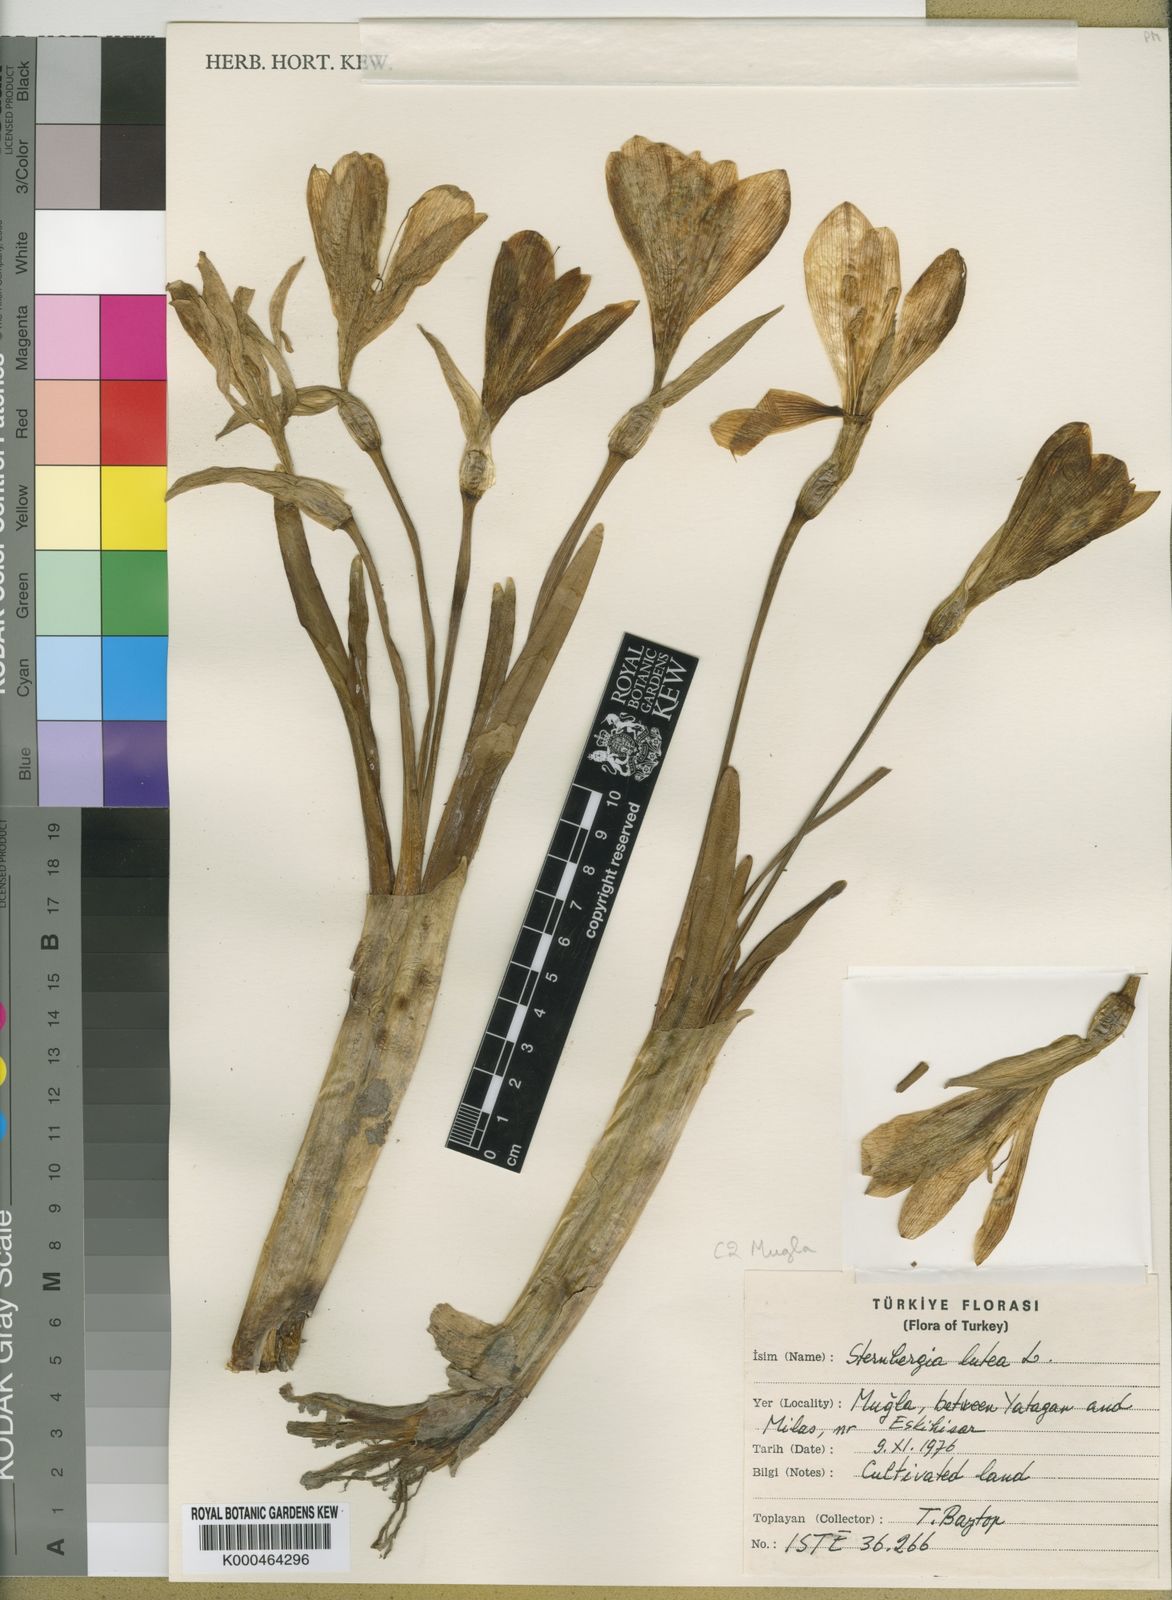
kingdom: Plantae
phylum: Tracheophyta
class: Liliopsida
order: Asparagales
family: Amaryllidaceae
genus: Sternbergia
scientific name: Sternbergia
